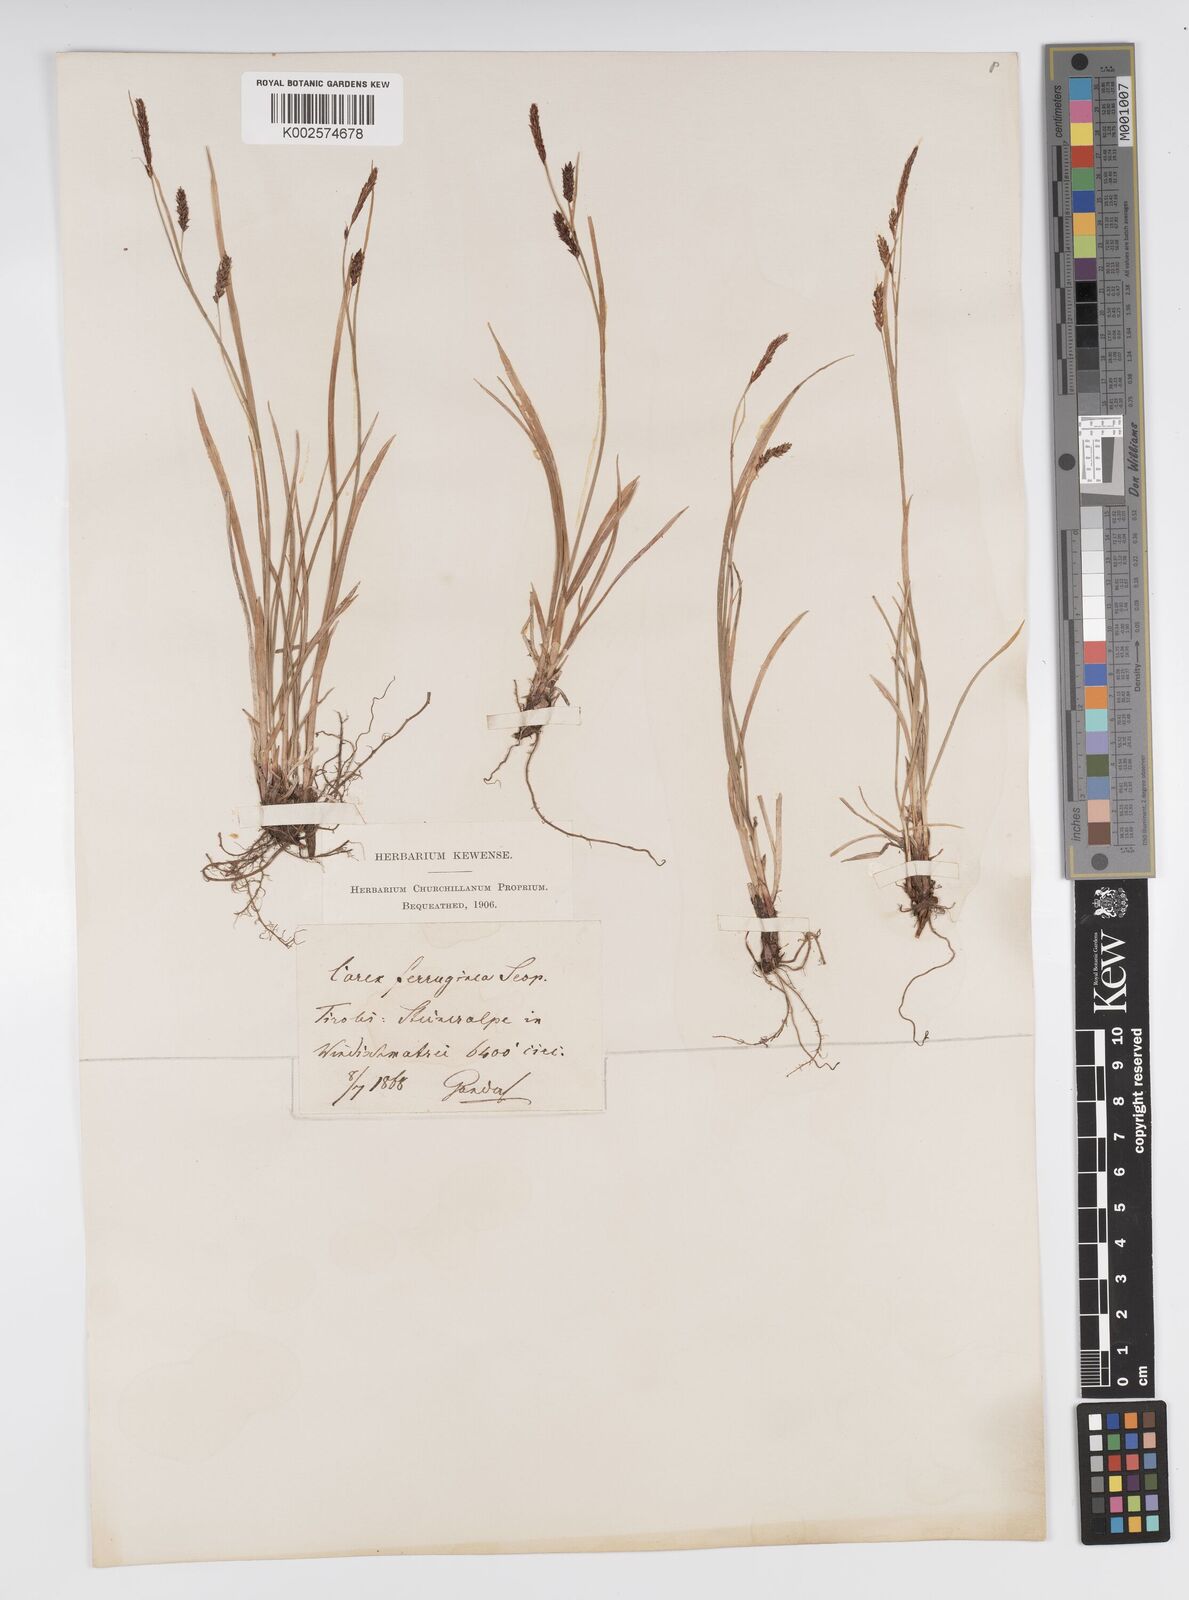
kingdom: Plantae
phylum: Tracheophyta
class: Liliopsida
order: Poales
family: Cyperaceae
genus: Carex
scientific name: Carex ferruginea
